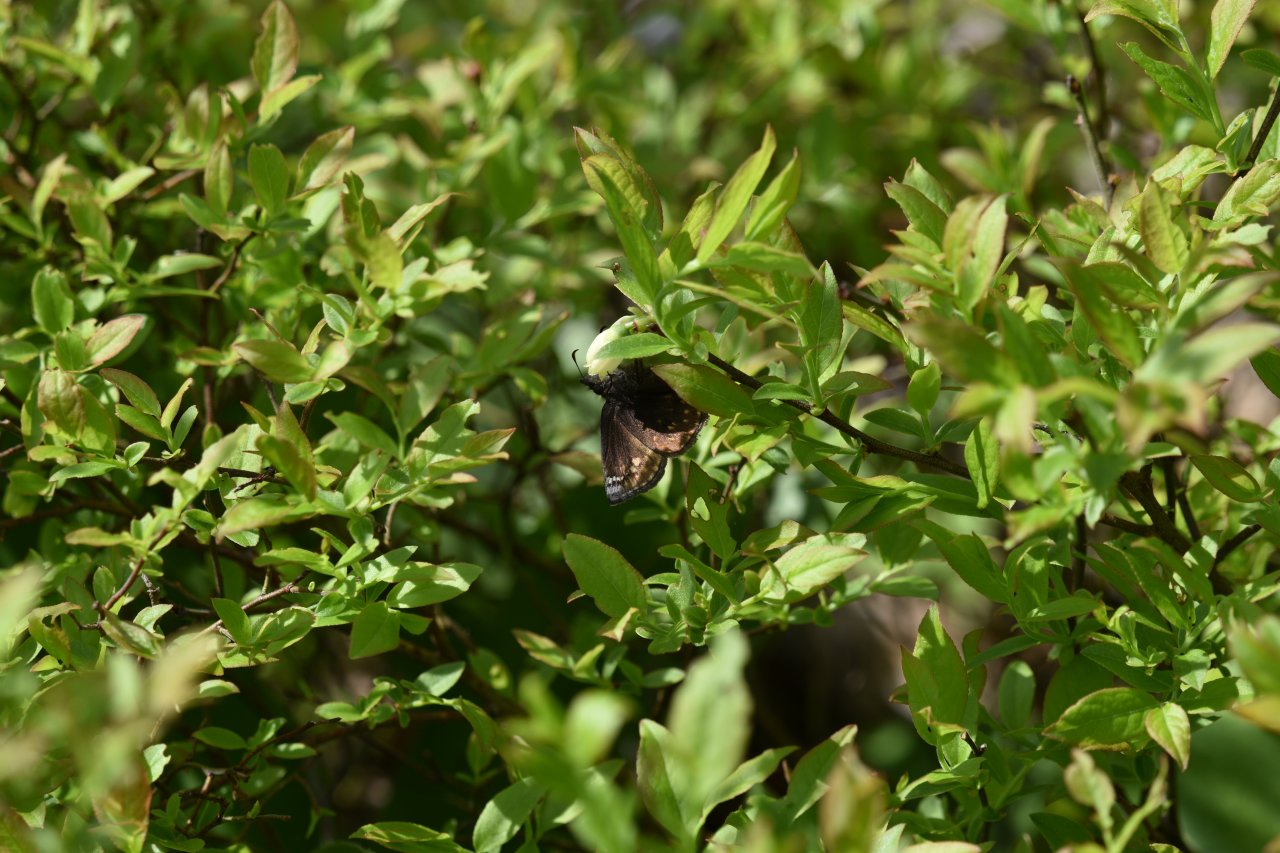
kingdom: Animalia
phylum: Arthropoda
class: Insecta
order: Lepidoptera
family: Hesperiidae
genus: Gesta
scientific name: Gesta
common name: Juvenal's Duskywing
